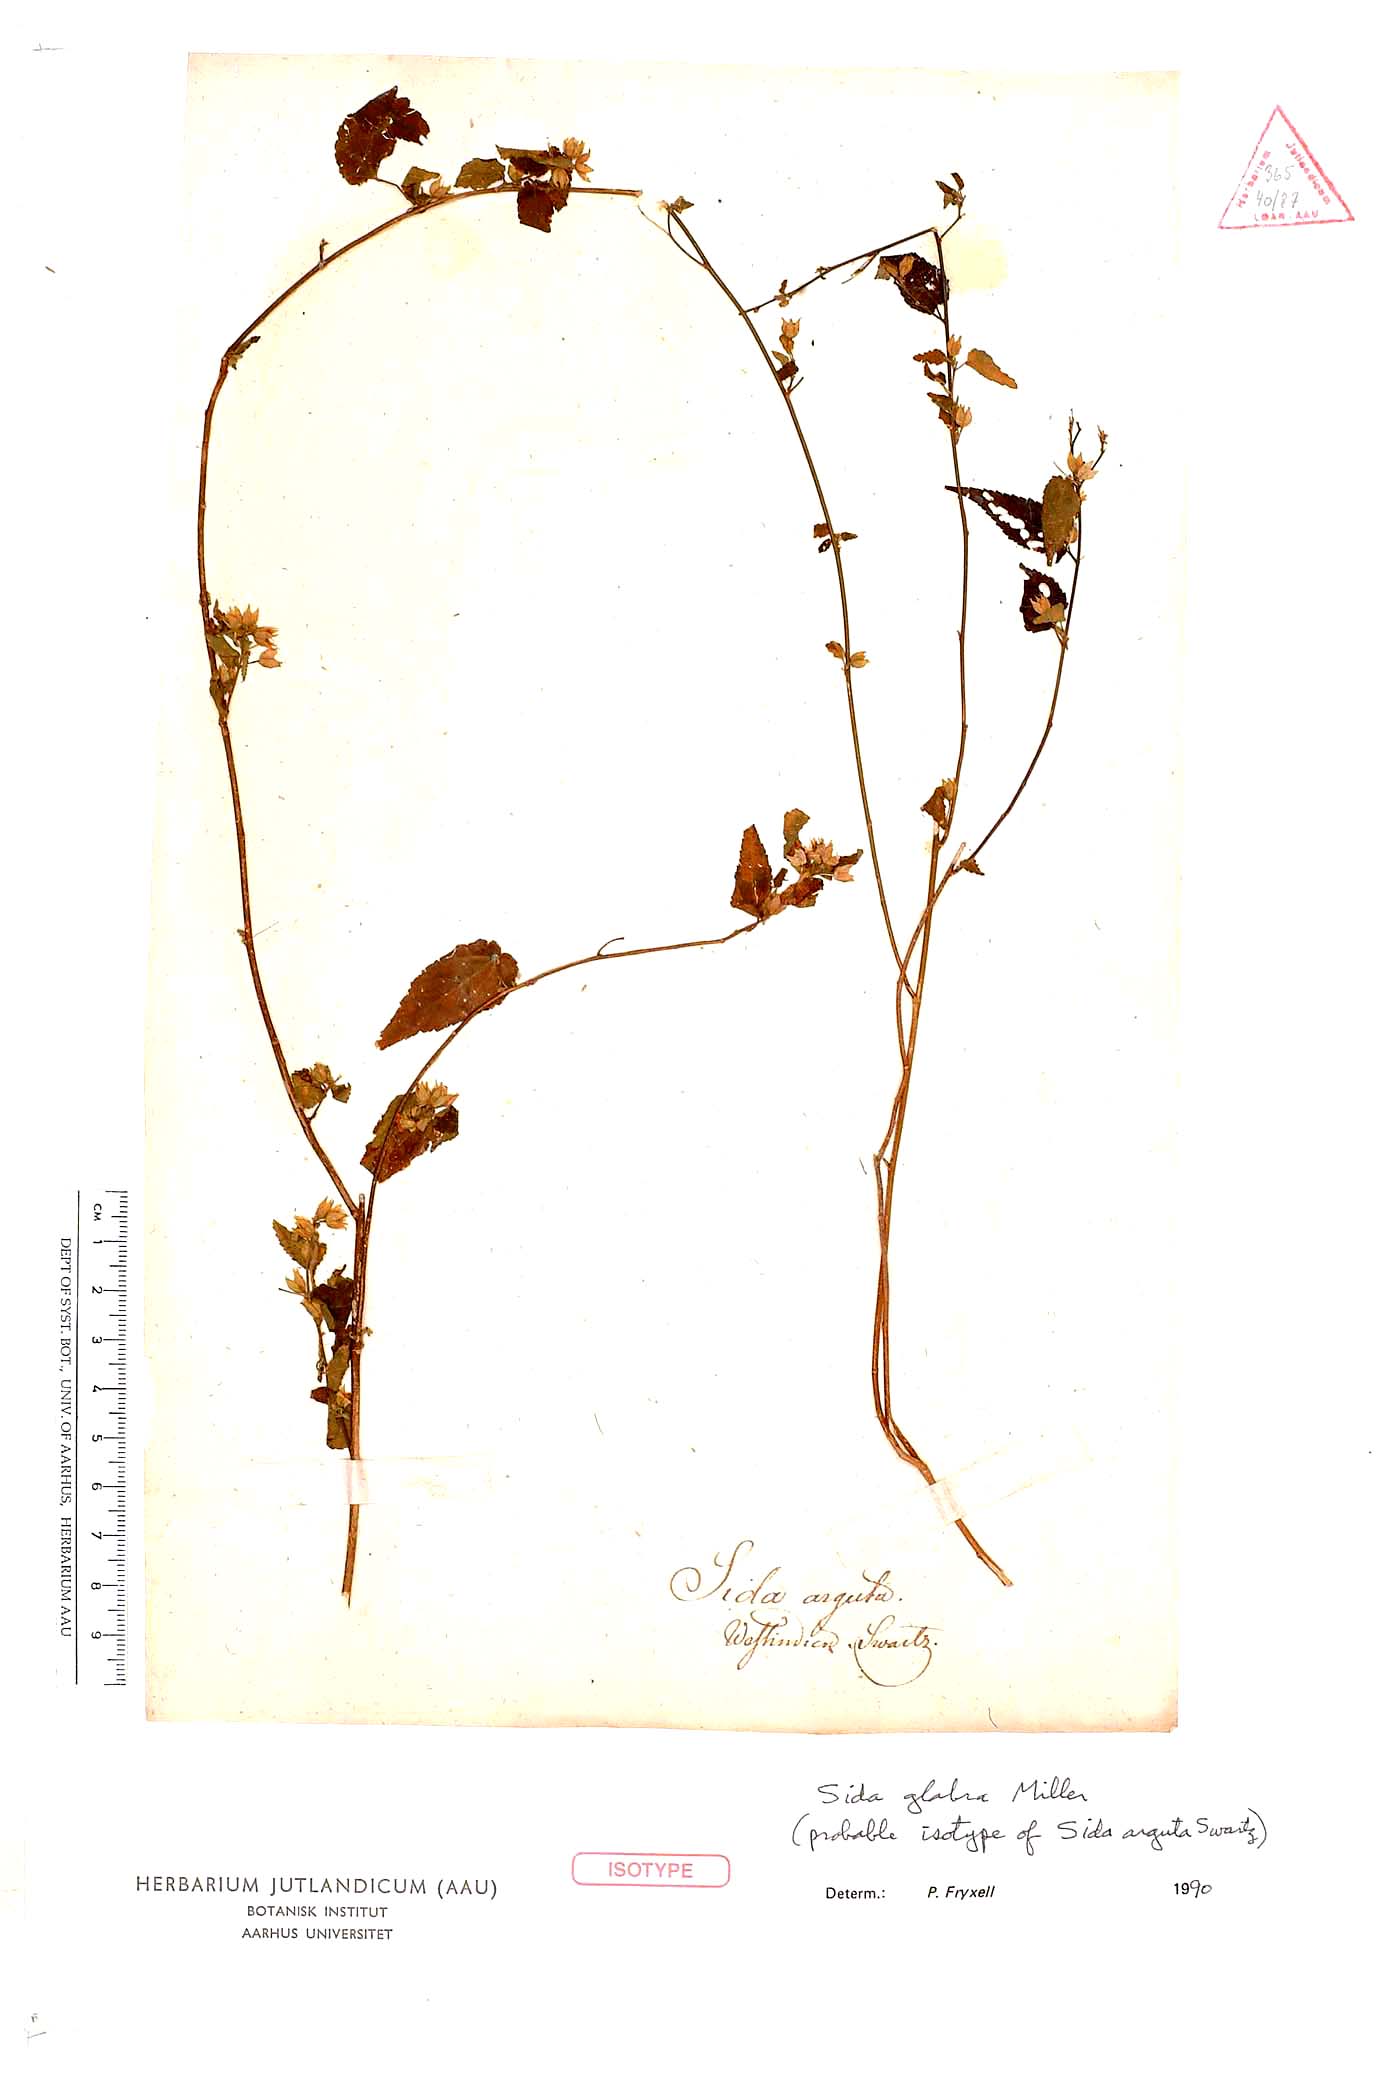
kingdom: Plantae
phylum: Tracheophyta
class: Magnoliopsida
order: Malvales
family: Malvaceae
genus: Sida
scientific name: Sida glabra
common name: Smooth fanpetals
